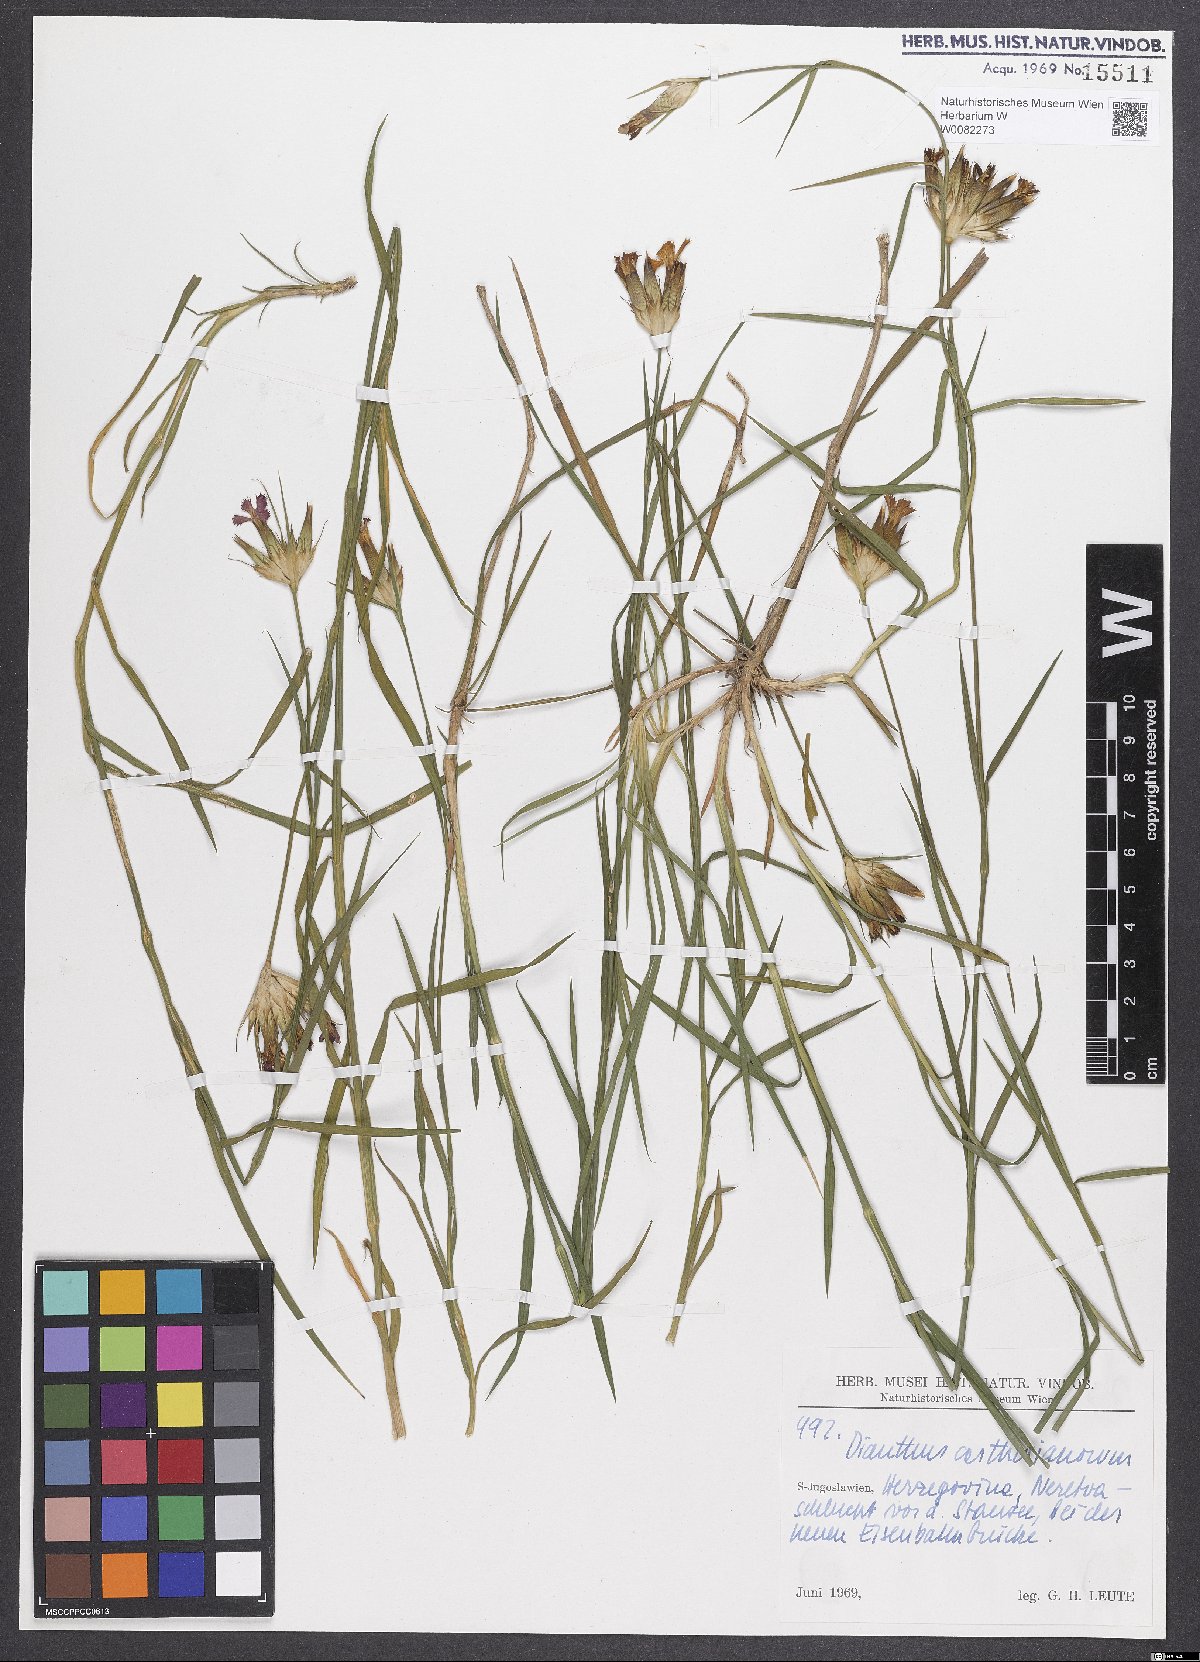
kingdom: Plantae
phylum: Tracheophyta
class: Magnoliopsida
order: Caryophyllales
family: Caryophyllaceae
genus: Dianthus
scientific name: Dianthus carthusianorum
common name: Carthusian pink
